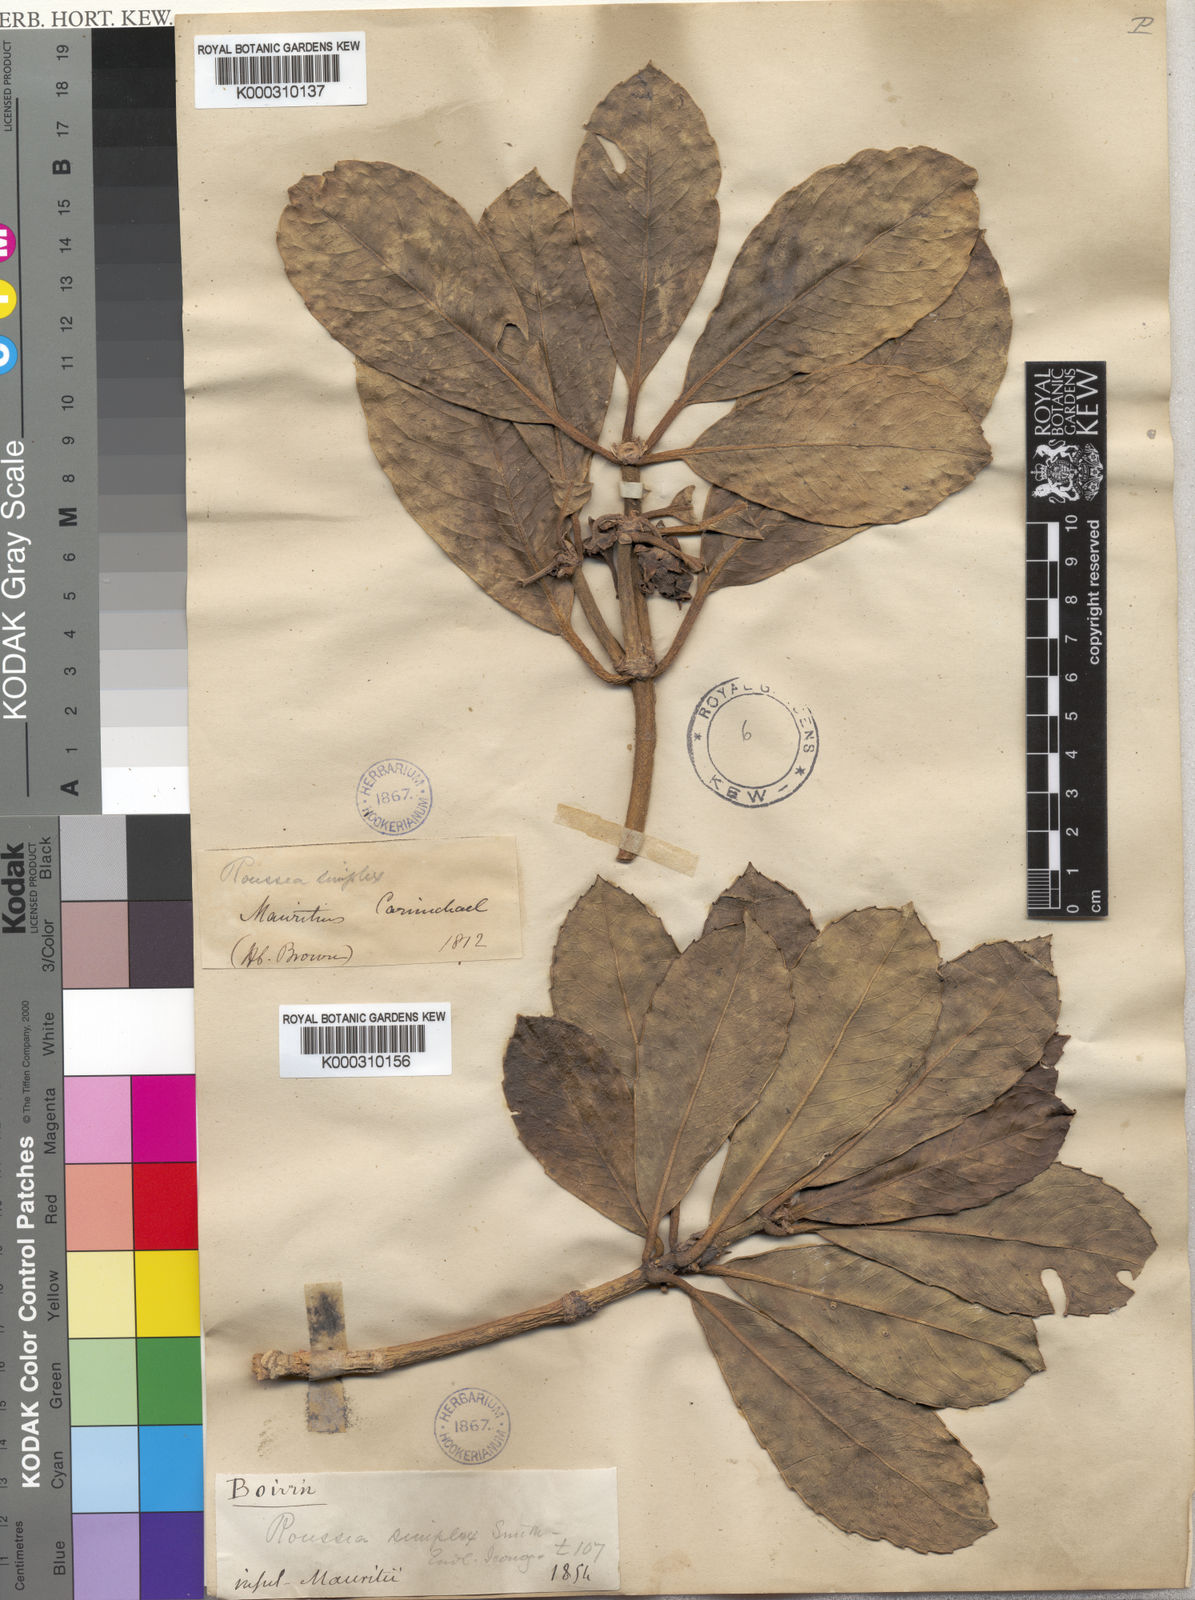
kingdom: Plantae
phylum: Tracheophyta
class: Magnoliopsida
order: Asterales
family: Rousseaceae
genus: Roussea
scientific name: Roussea simplex
